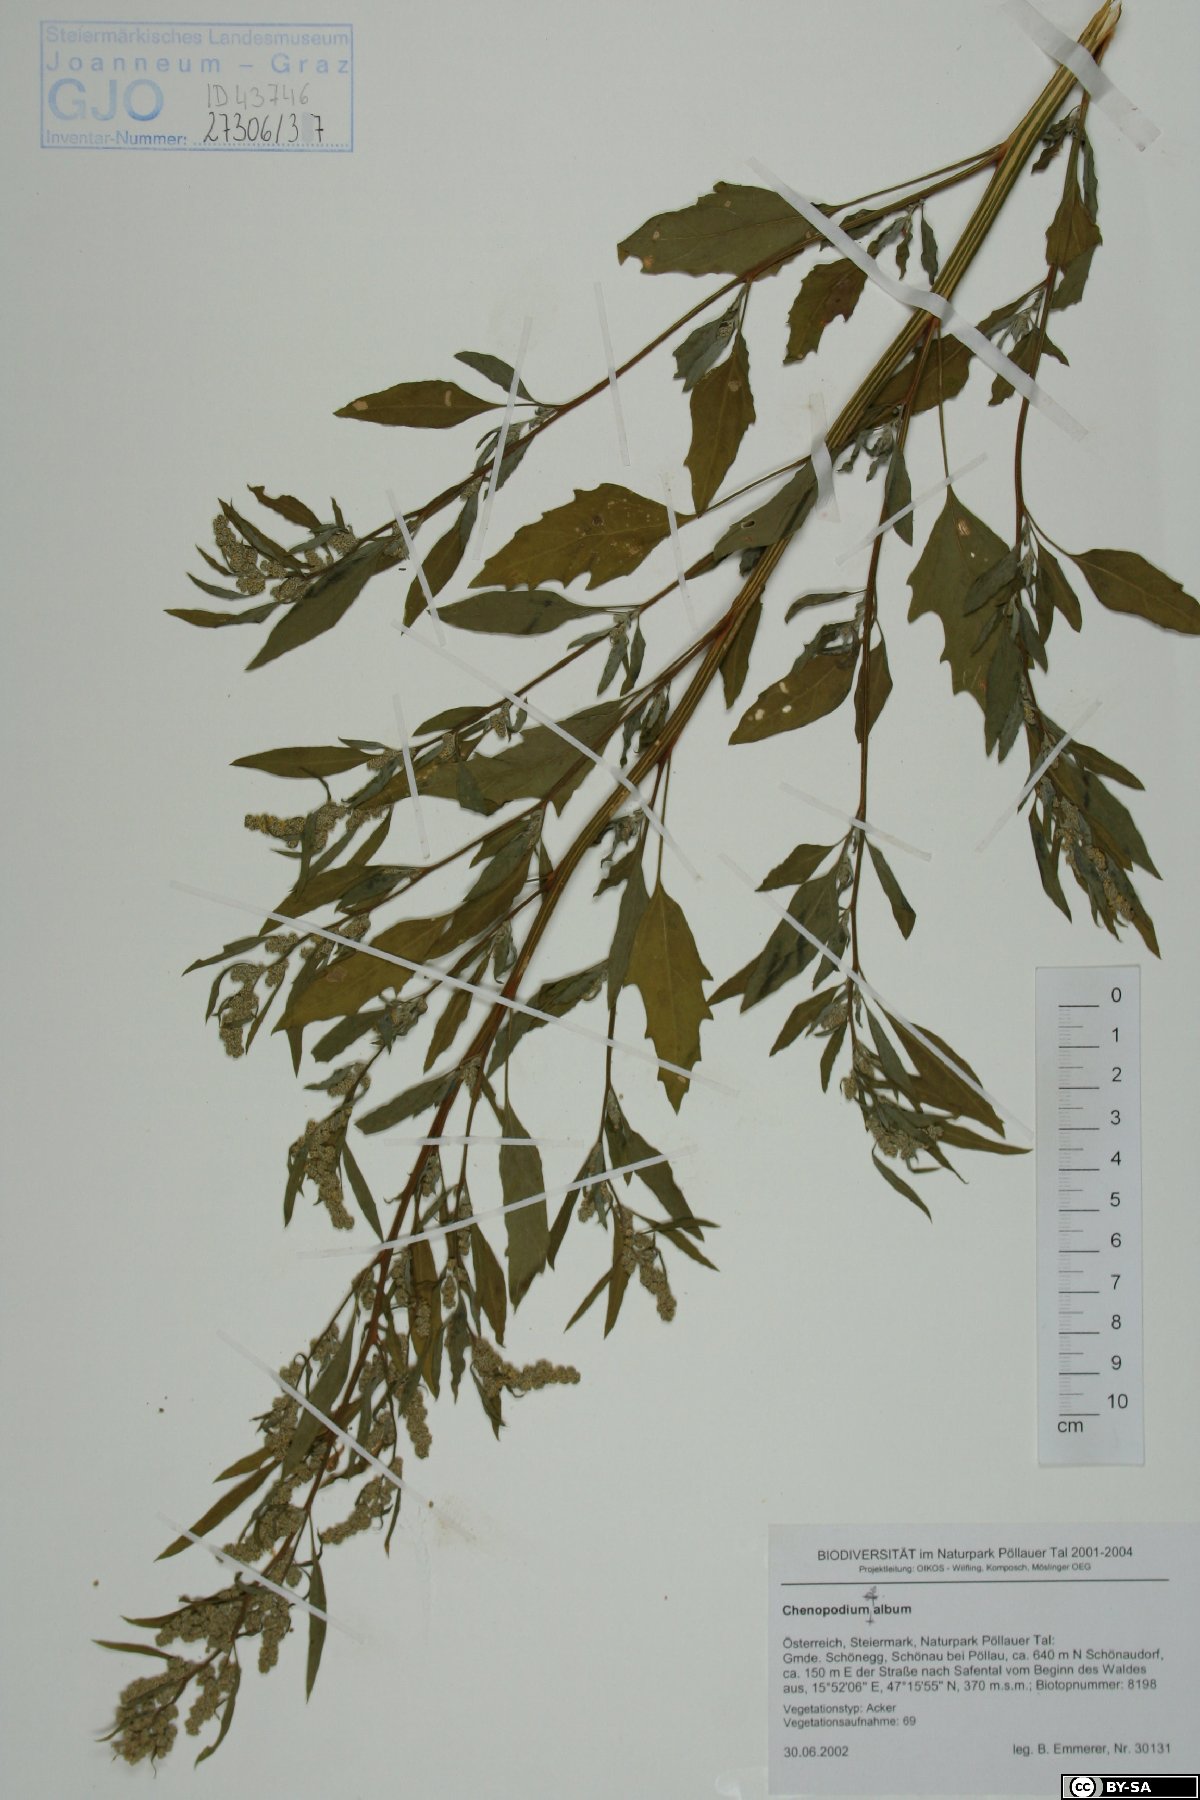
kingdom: Plantae
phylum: Tracheophyta
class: Magnoliopsida
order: Caryophyllales
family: Amaranthaceae
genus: Chenopodium
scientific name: Chenopodium album
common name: Fat-hen
